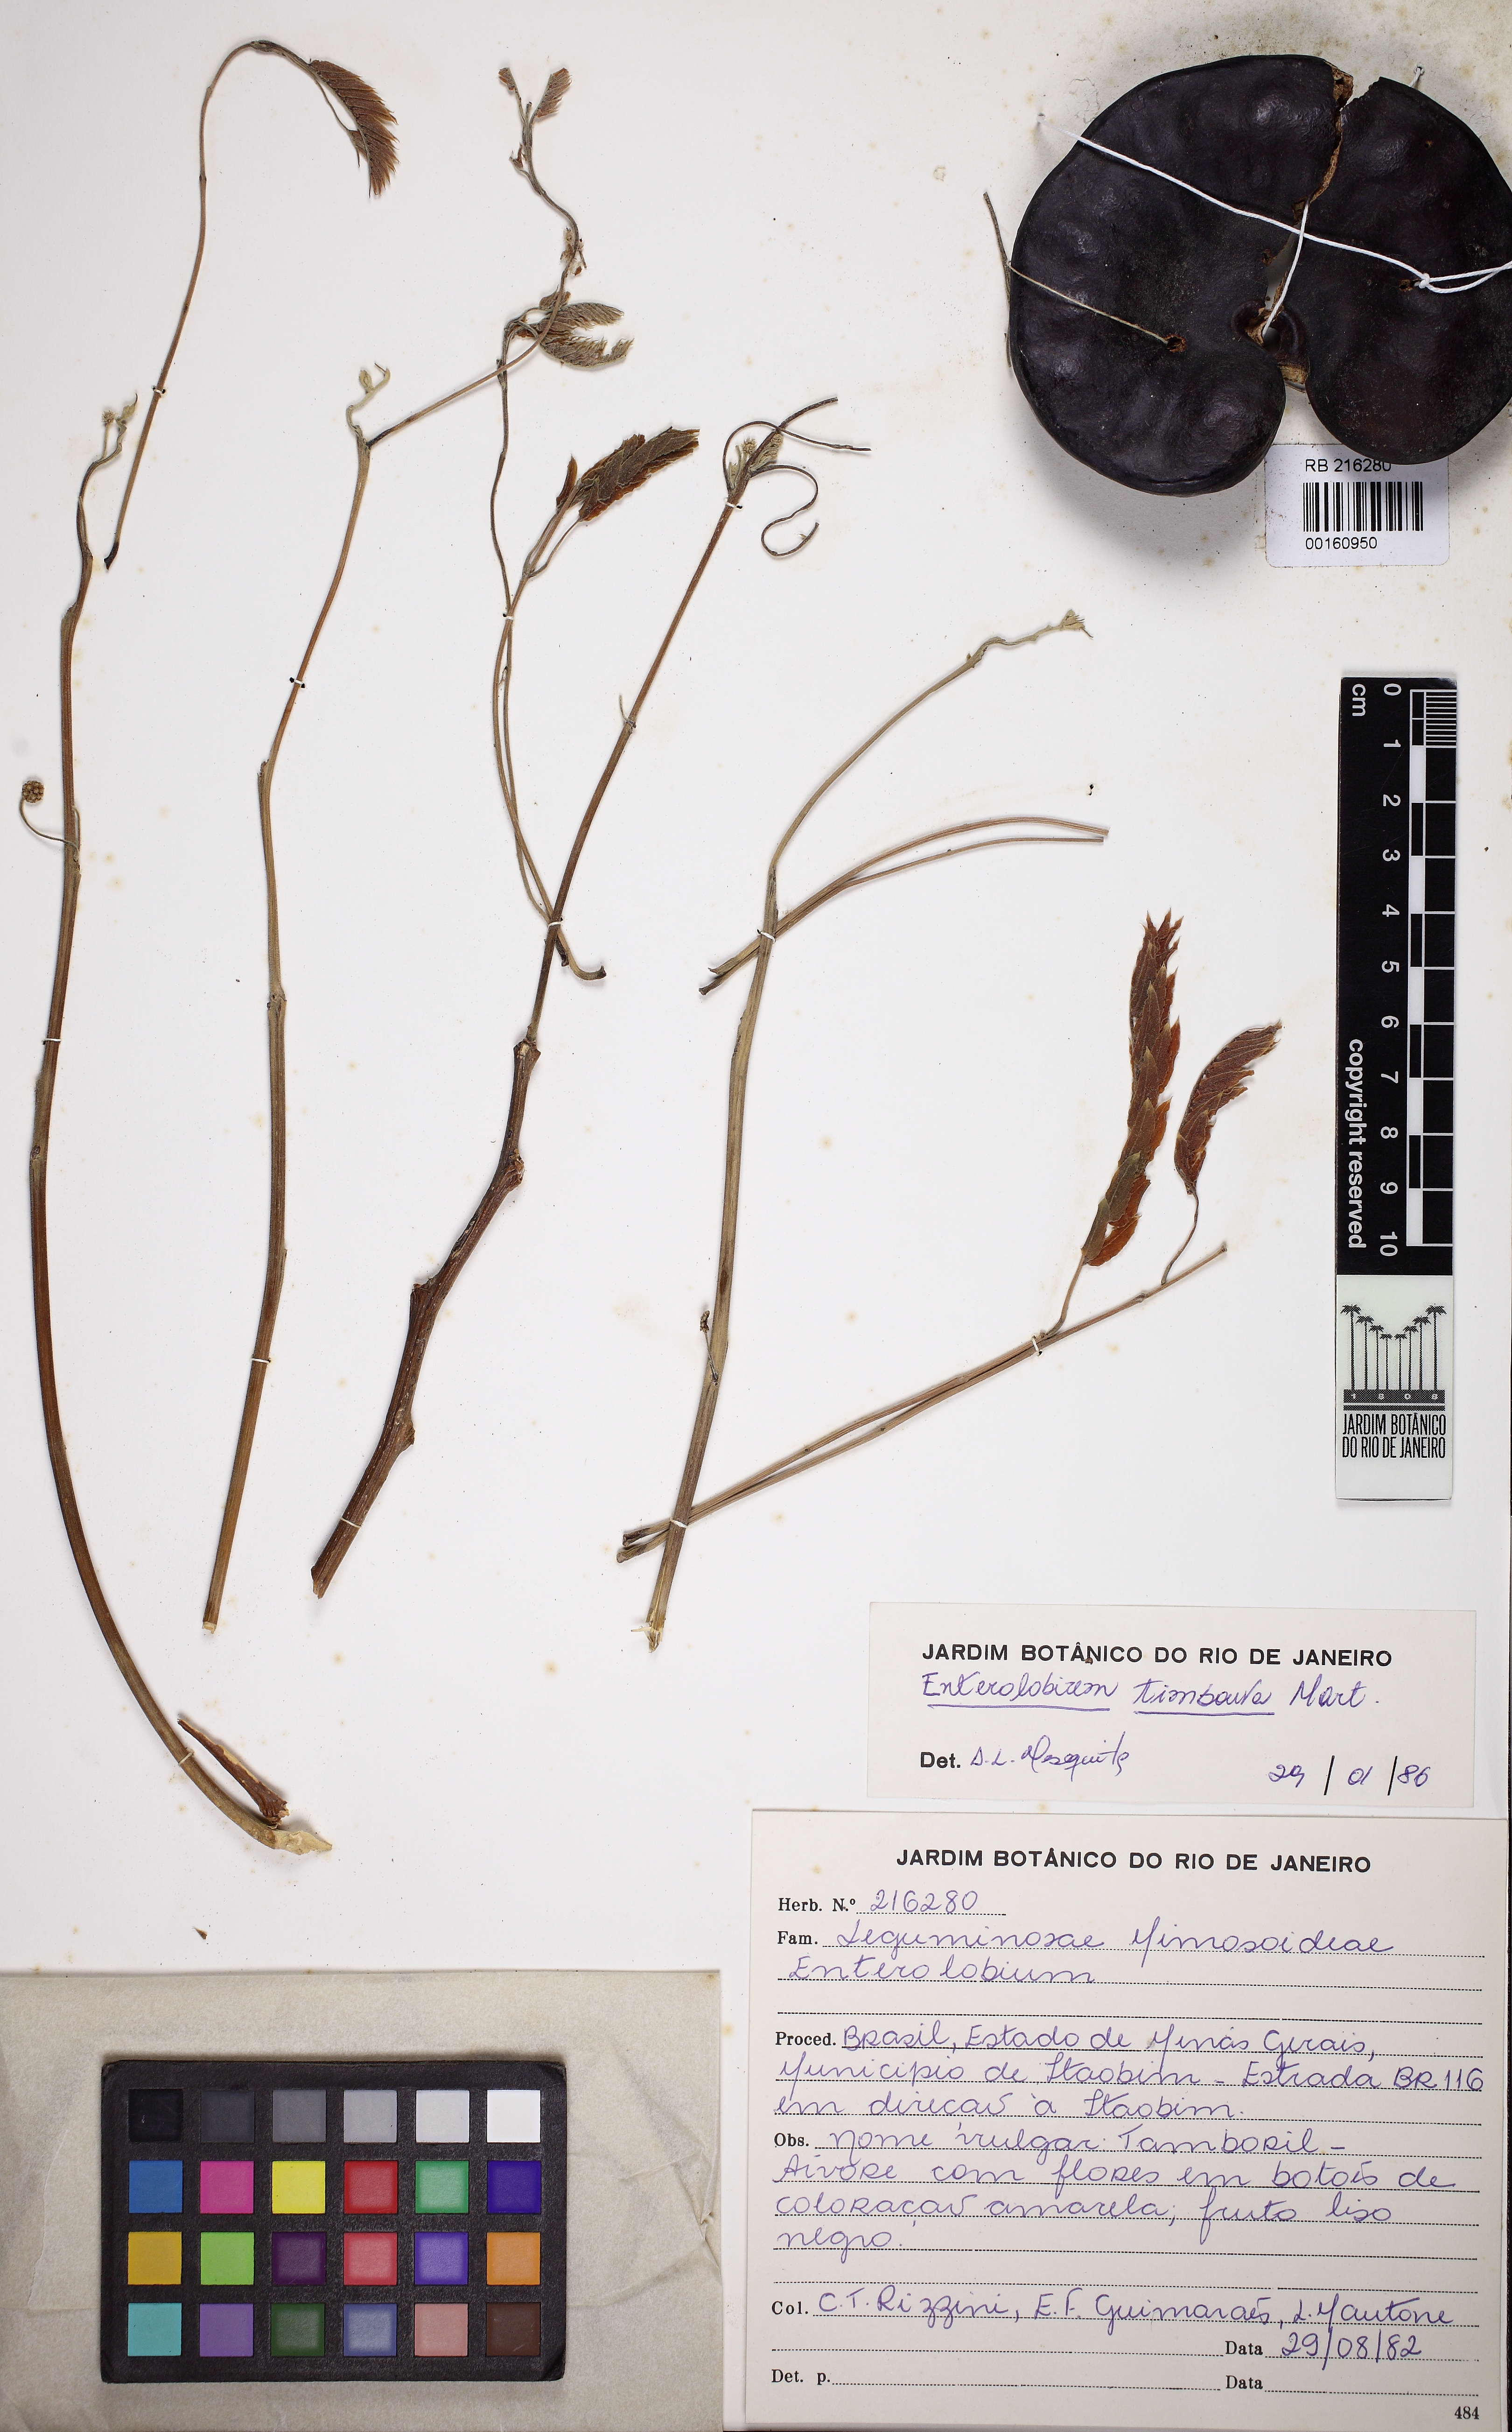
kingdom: Plantae
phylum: Tracheophyta
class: Magnoliopsida
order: Fabales
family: Fabaceae
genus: Enterolobium
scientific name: Enterolobium timbouva
